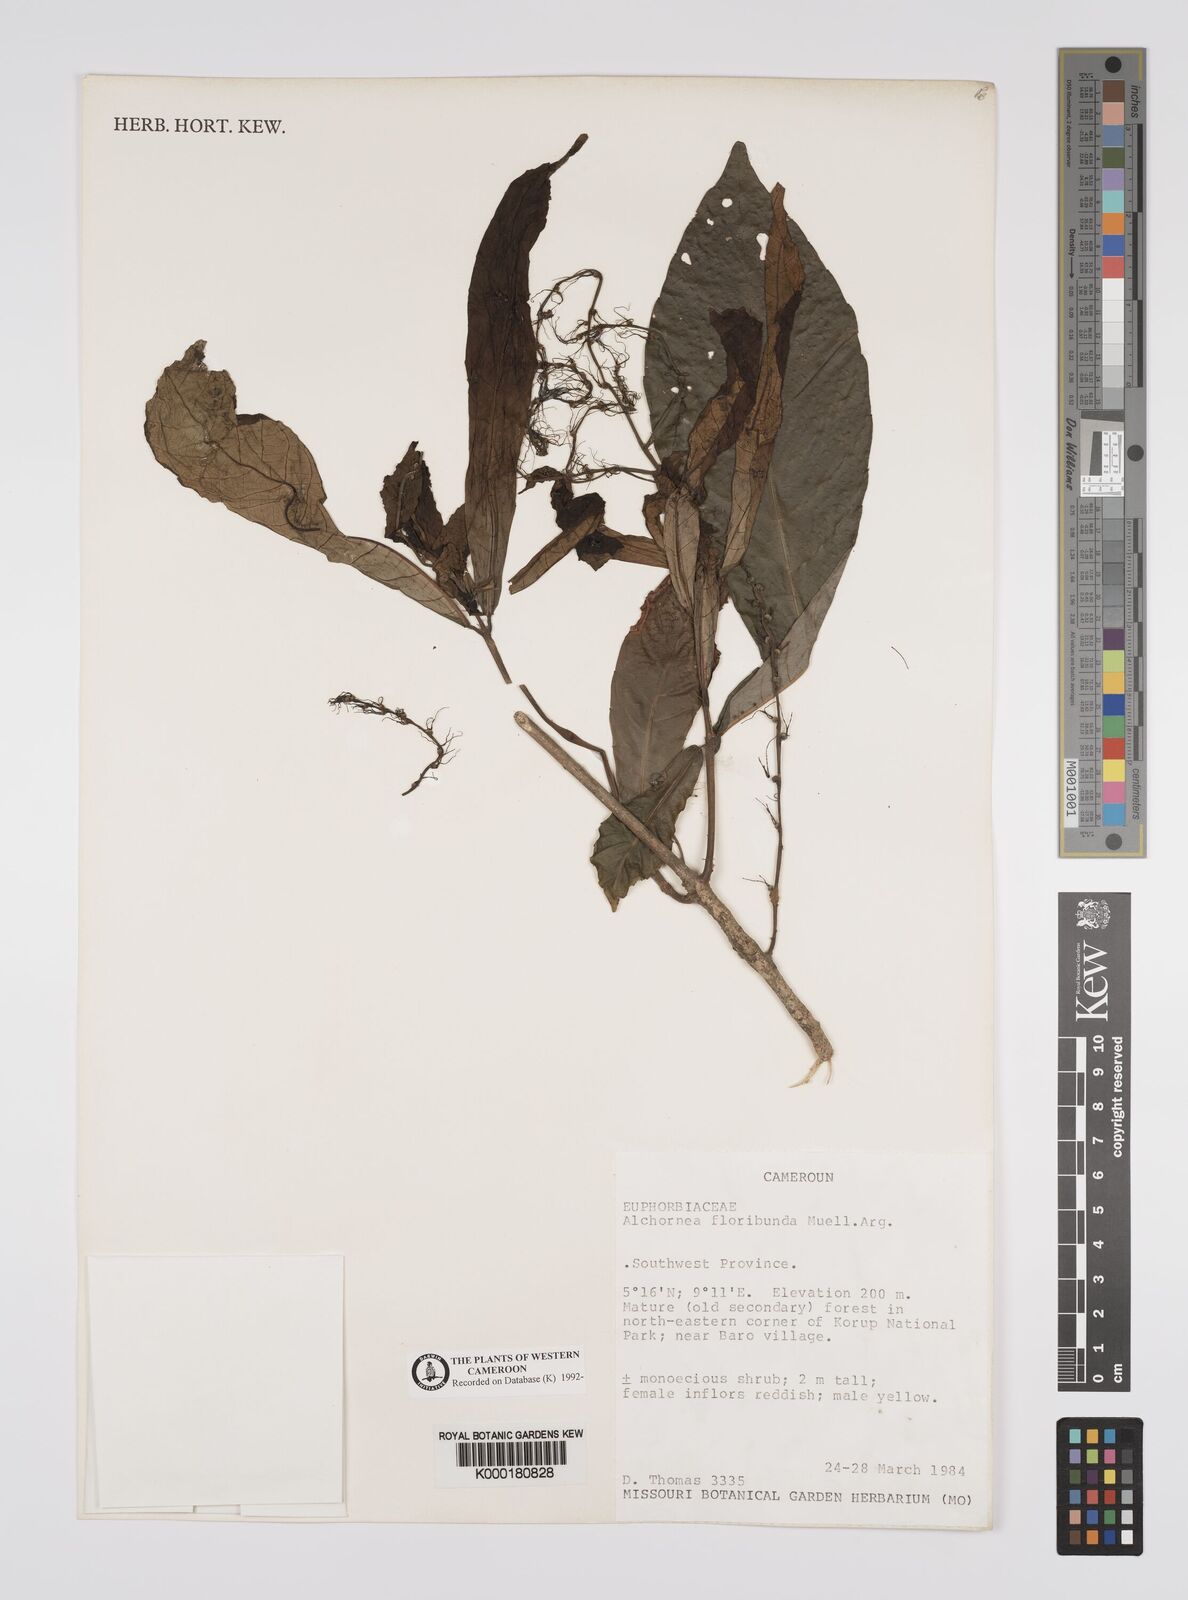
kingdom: Plantae
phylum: Tracheophyta
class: Magnoliopsida
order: Malpighiales
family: Euphorbiaceae
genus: Alchornea
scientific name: Alchornea
